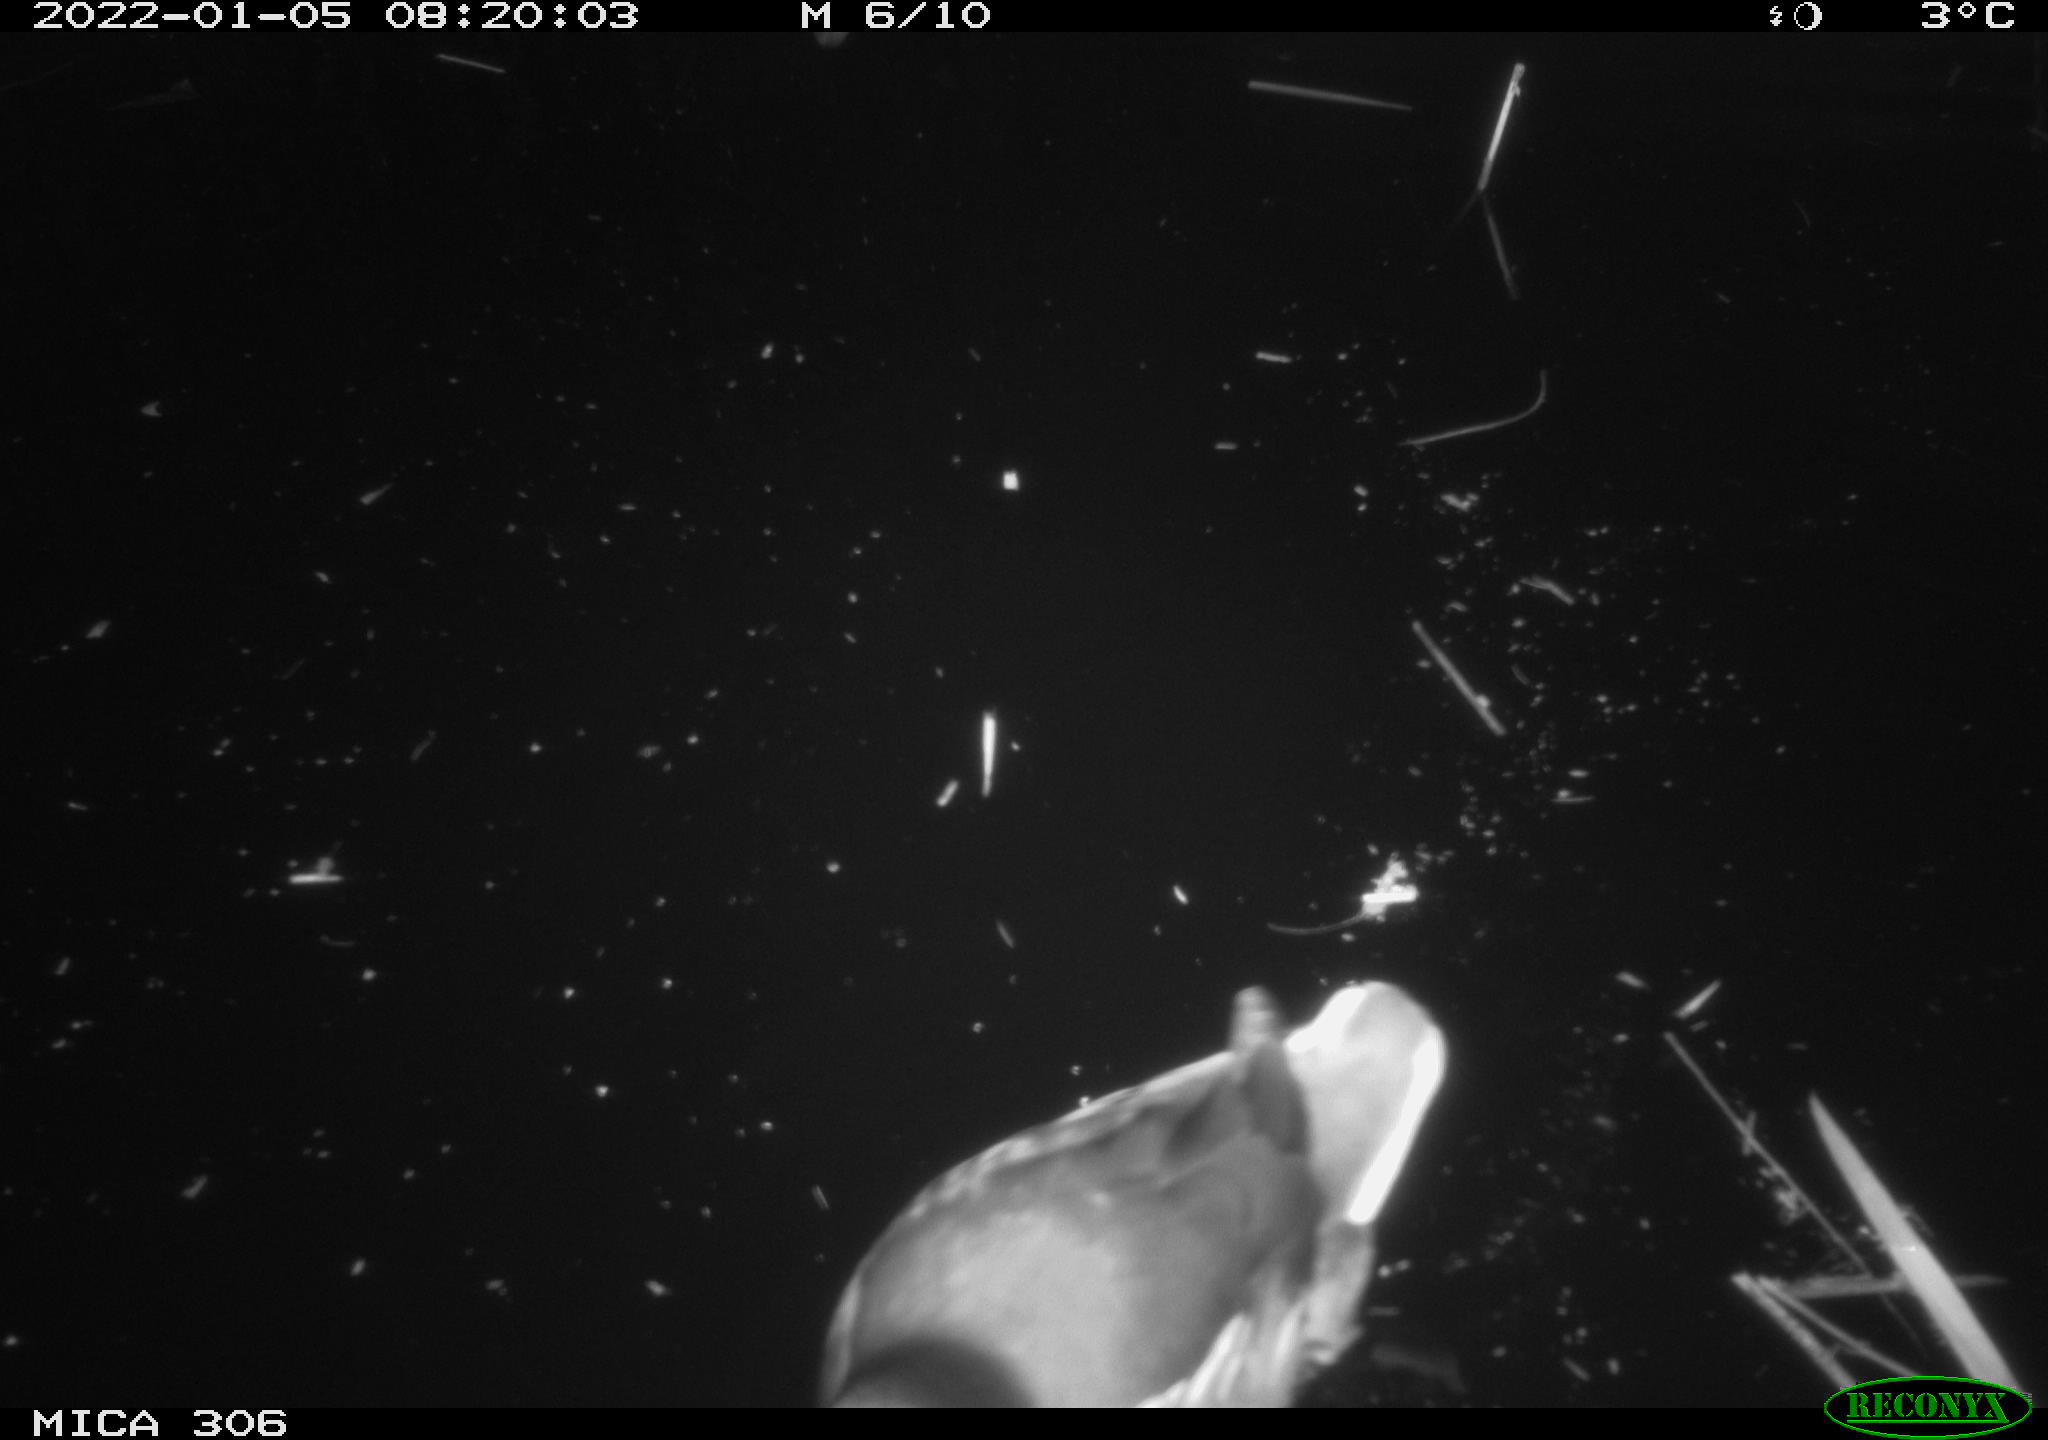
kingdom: Animalia
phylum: Chordata
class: Aves
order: Anseriformes
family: Anatidae
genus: Anas
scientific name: Anas
